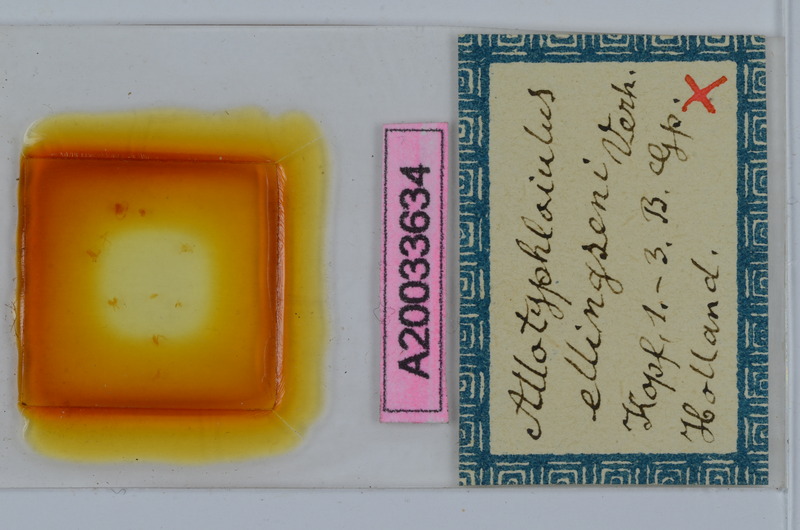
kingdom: Animalia
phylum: Arthropoda
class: Diplopoda
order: Julida
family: Julidae
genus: Allotyphloiulus
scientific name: Allotyphloiulus
